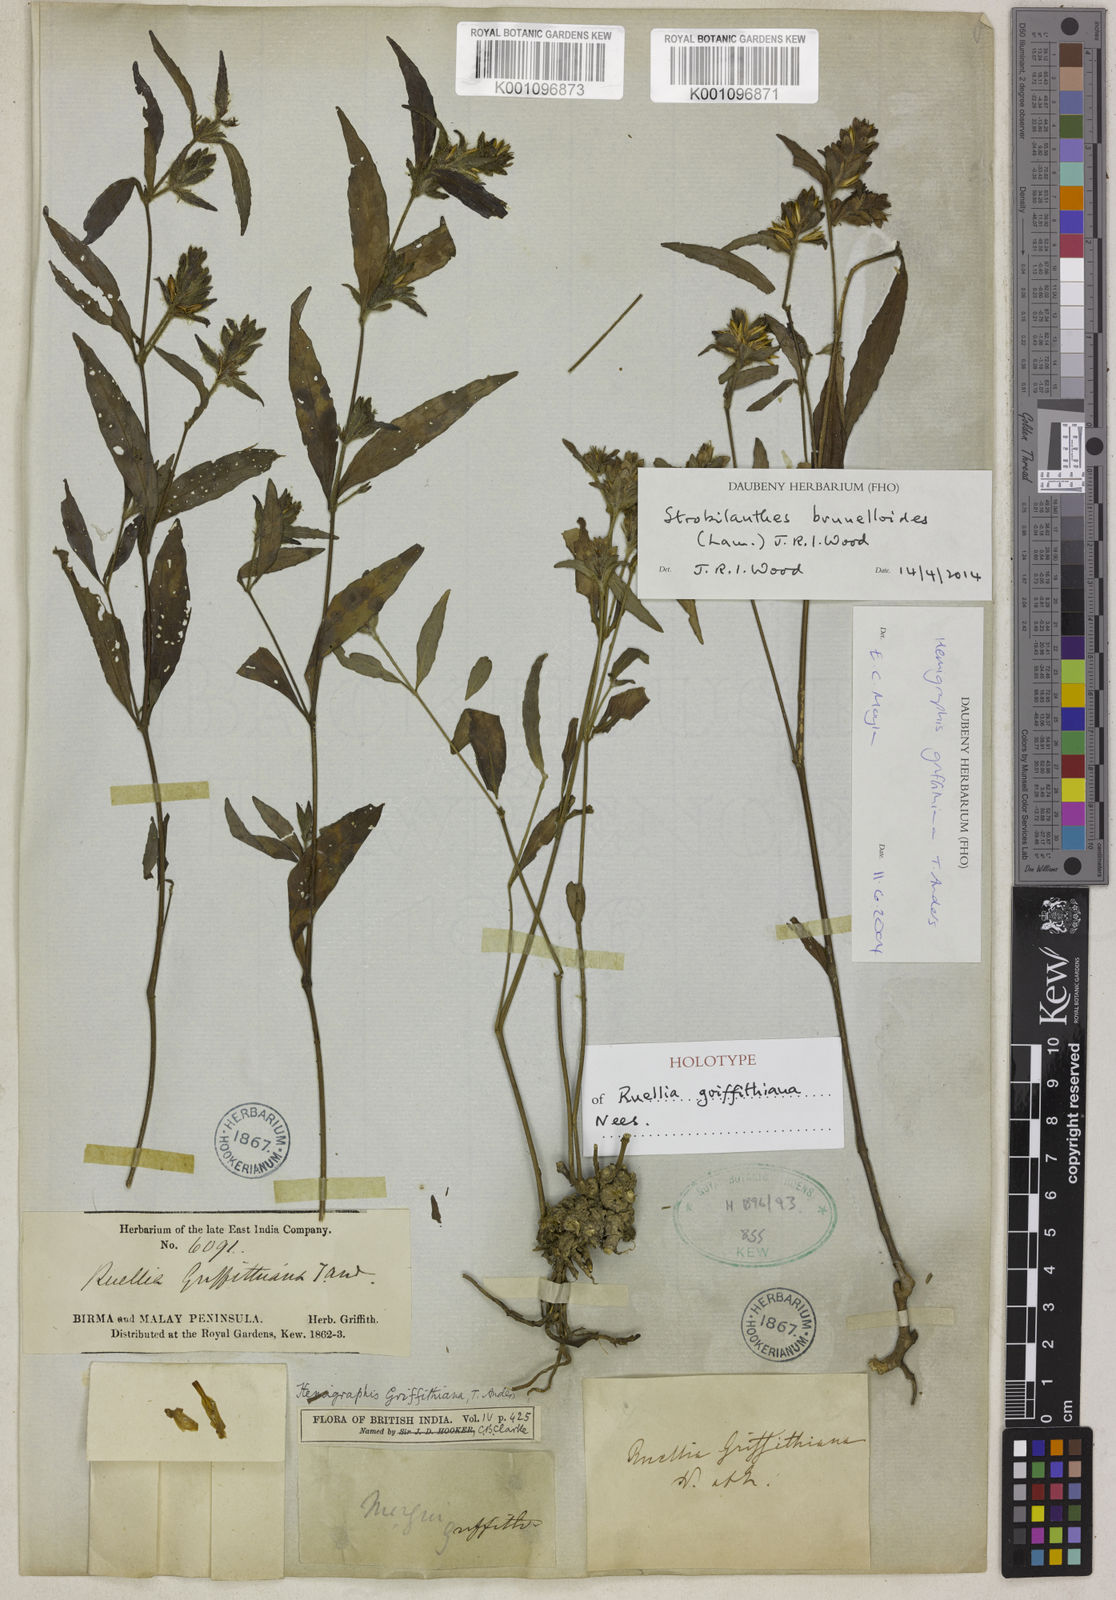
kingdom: Plantae
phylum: Tracheophyta
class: Magnoliopsida
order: Lamiales
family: Acanthaceae
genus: Strobilanthes
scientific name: Strobilanthes brunelloides
